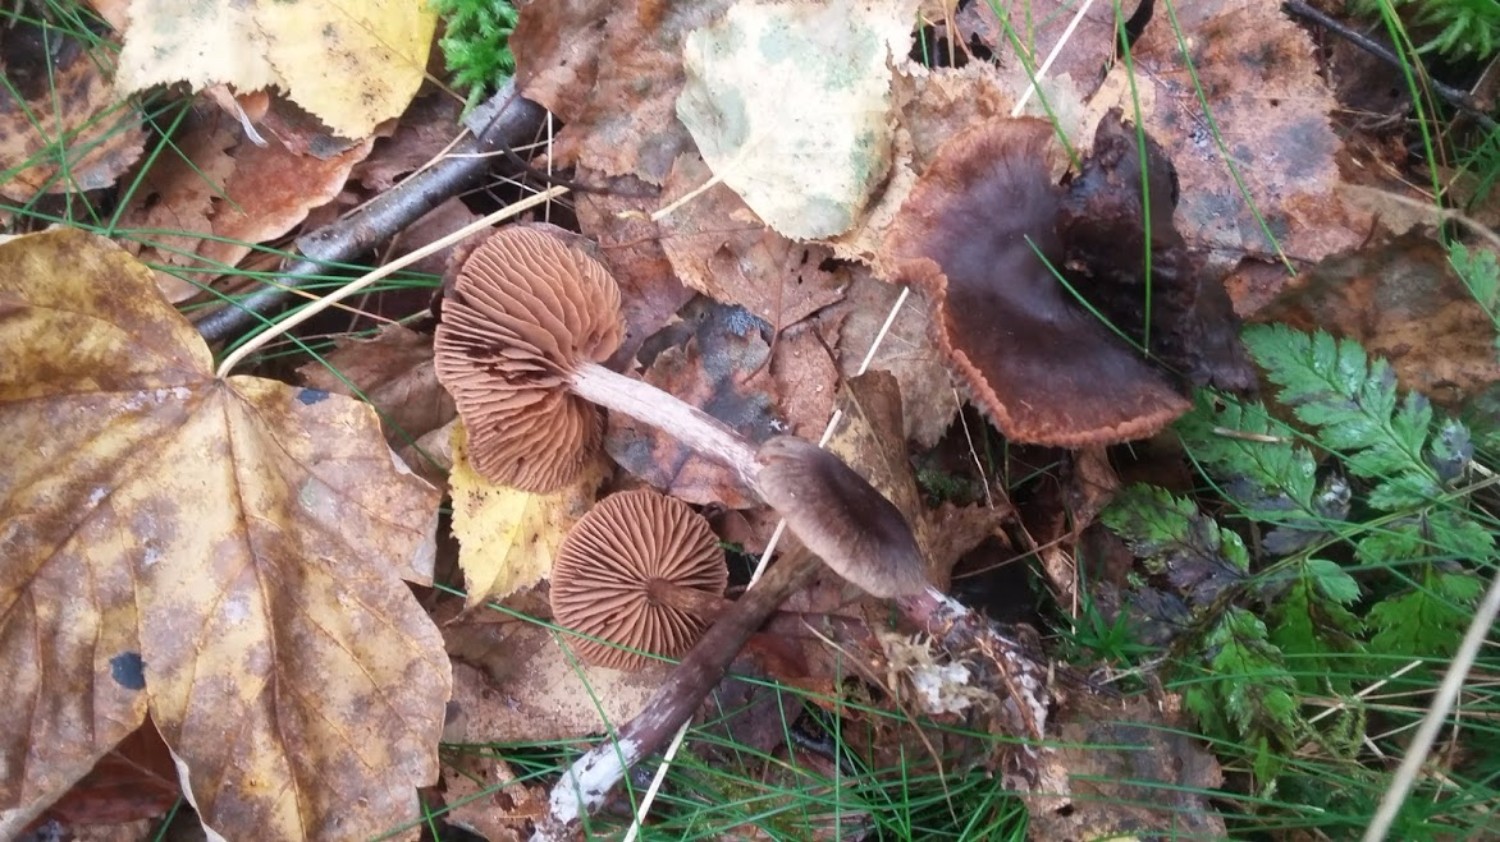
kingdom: Fungi
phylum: Basidiomycota
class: Agaricomycetes
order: Agaricales
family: Cortinariaceae
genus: Cortinarius
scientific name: Cortinarius
